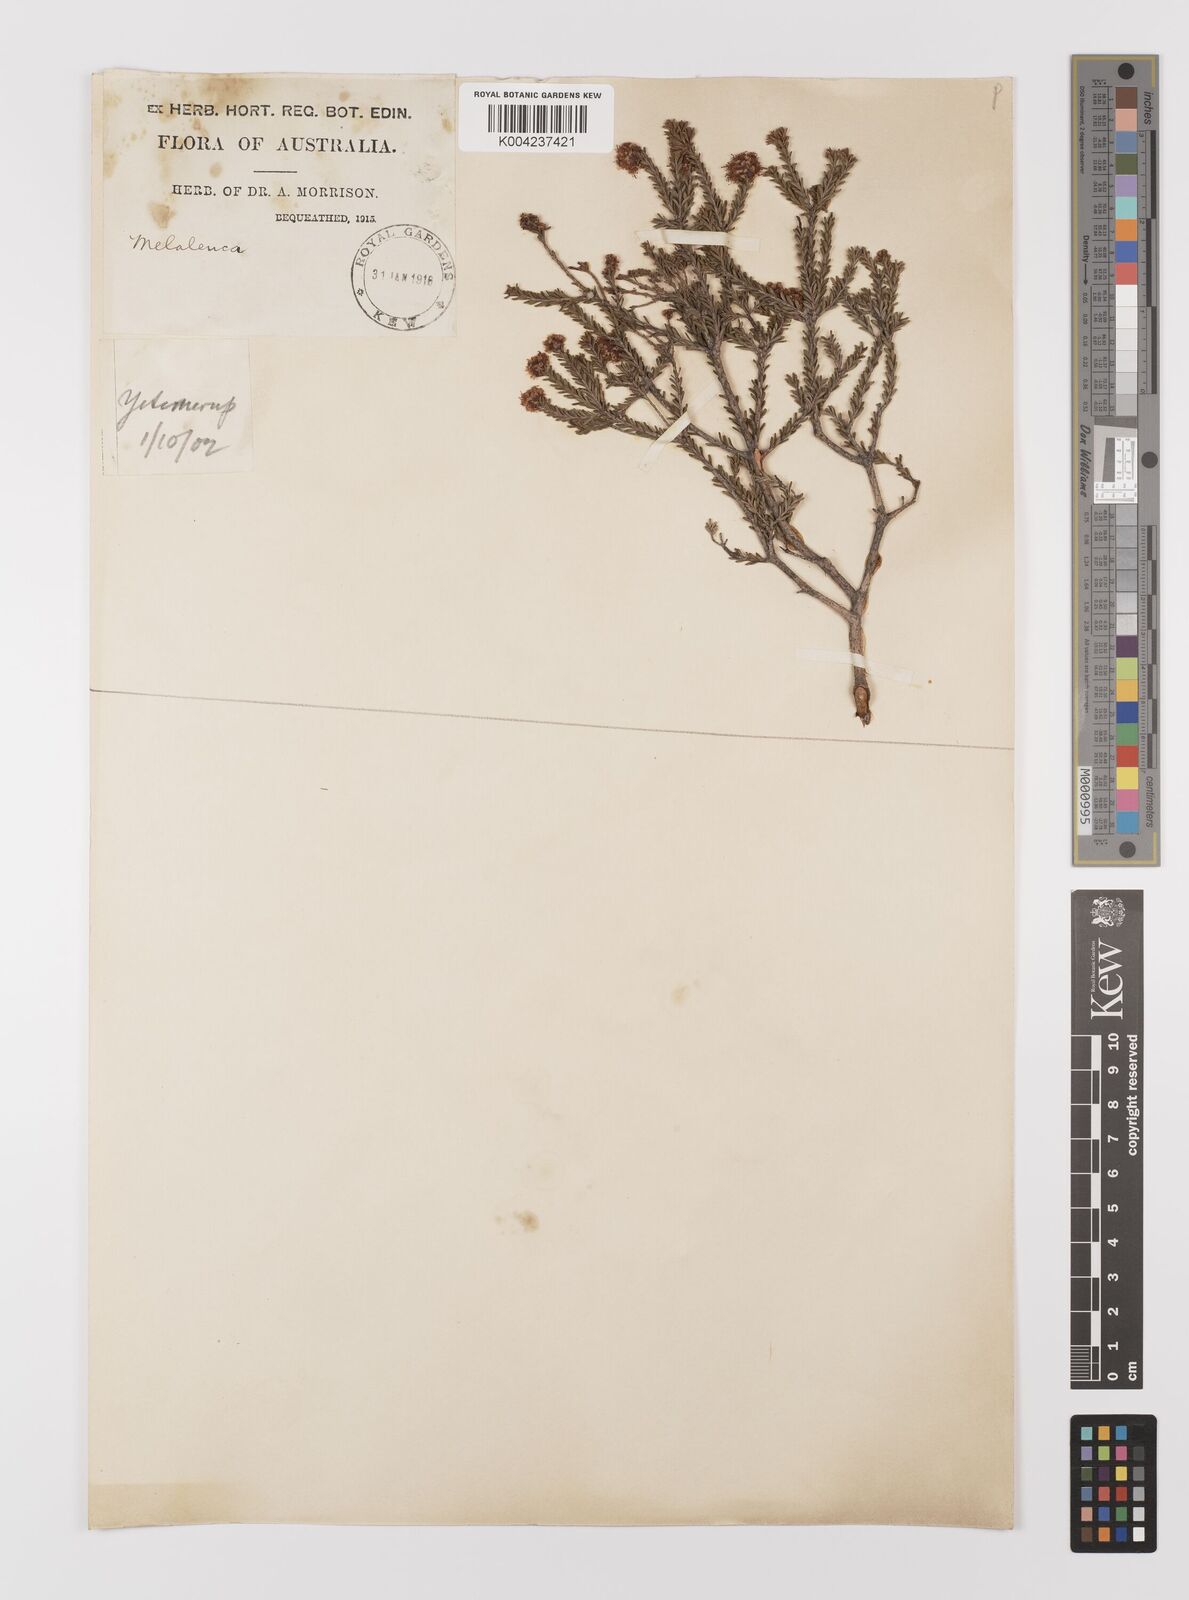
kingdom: Plantae
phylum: Tracheophyta
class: Magnoliopsida
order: Myrtales
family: Myrtaceae
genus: Melaleuca
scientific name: Melaleuca
